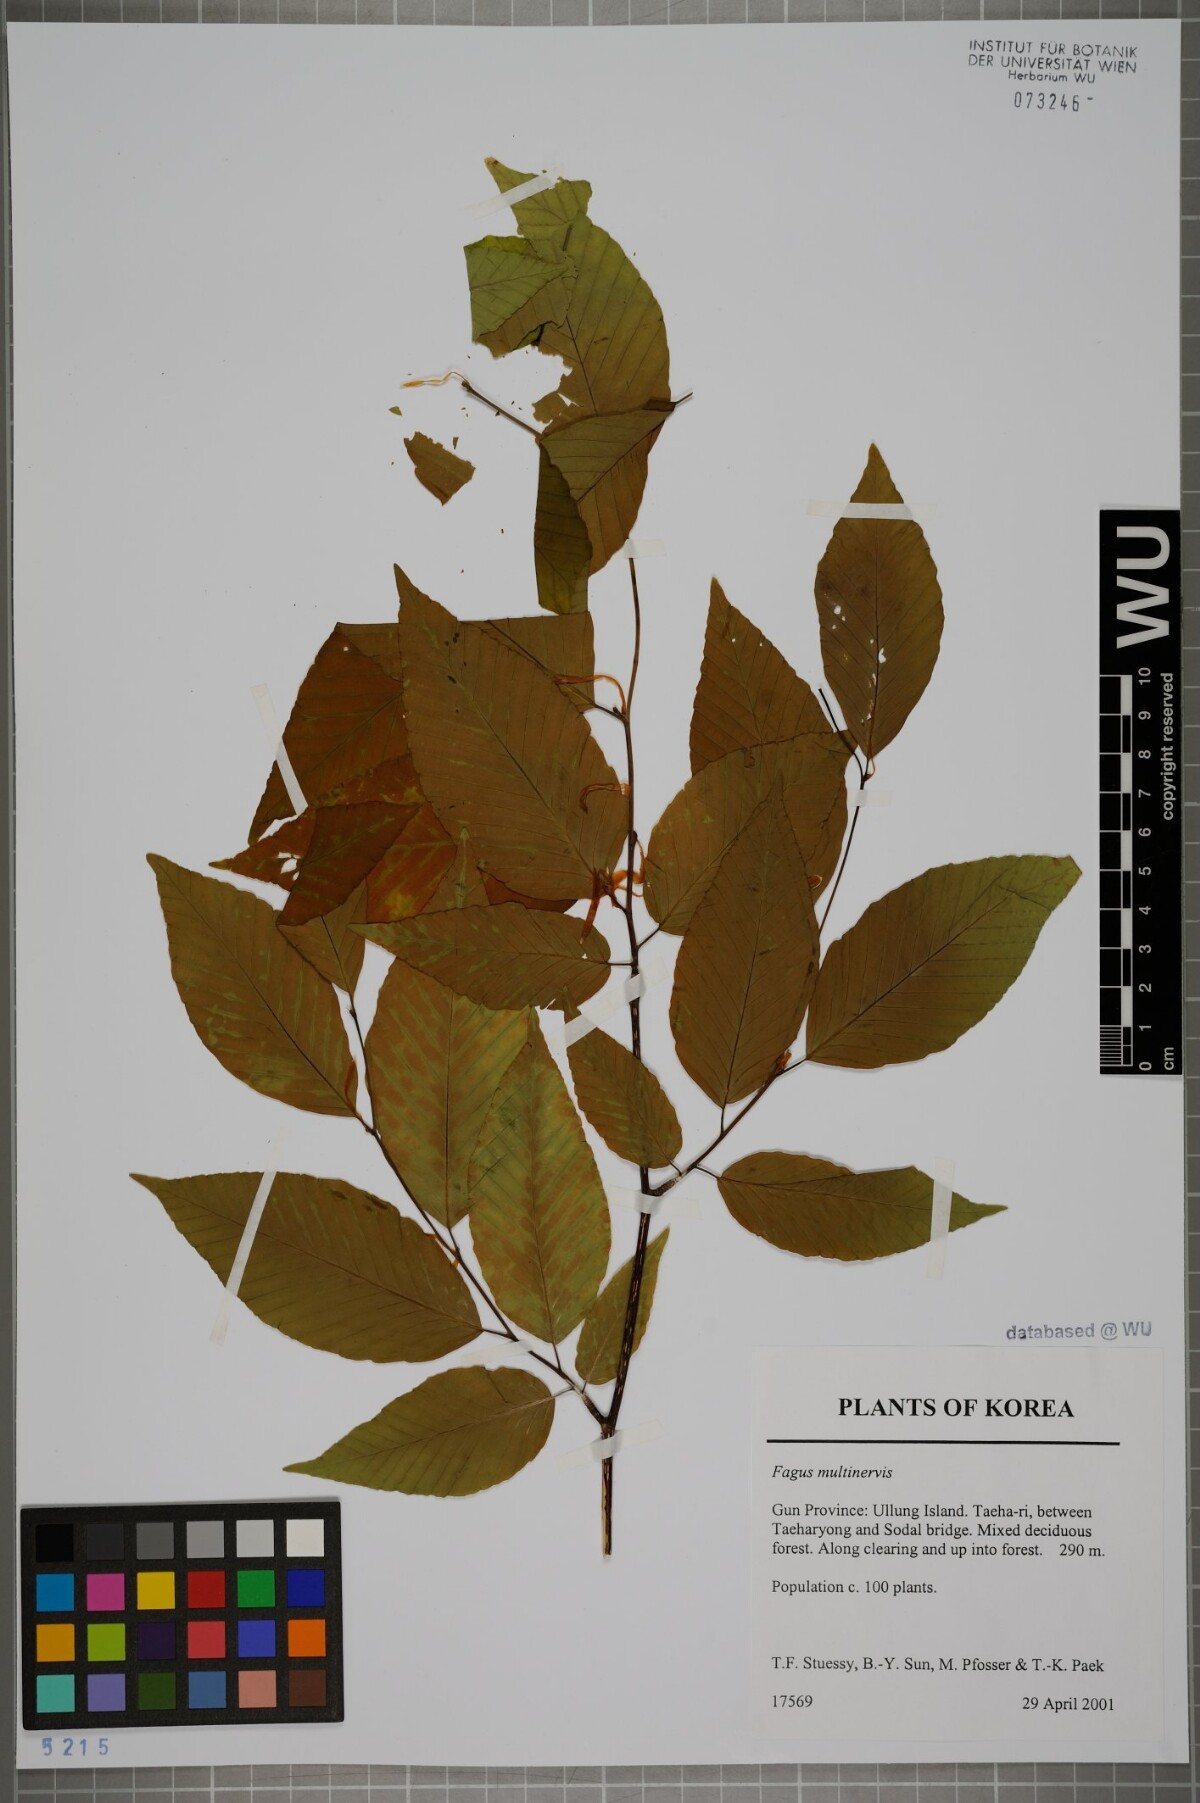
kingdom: Plantae
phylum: Tracheophyta
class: Magnoliopsida
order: Fagales
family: Fagaceae
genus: Fagus
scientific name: Fagus multinervis
